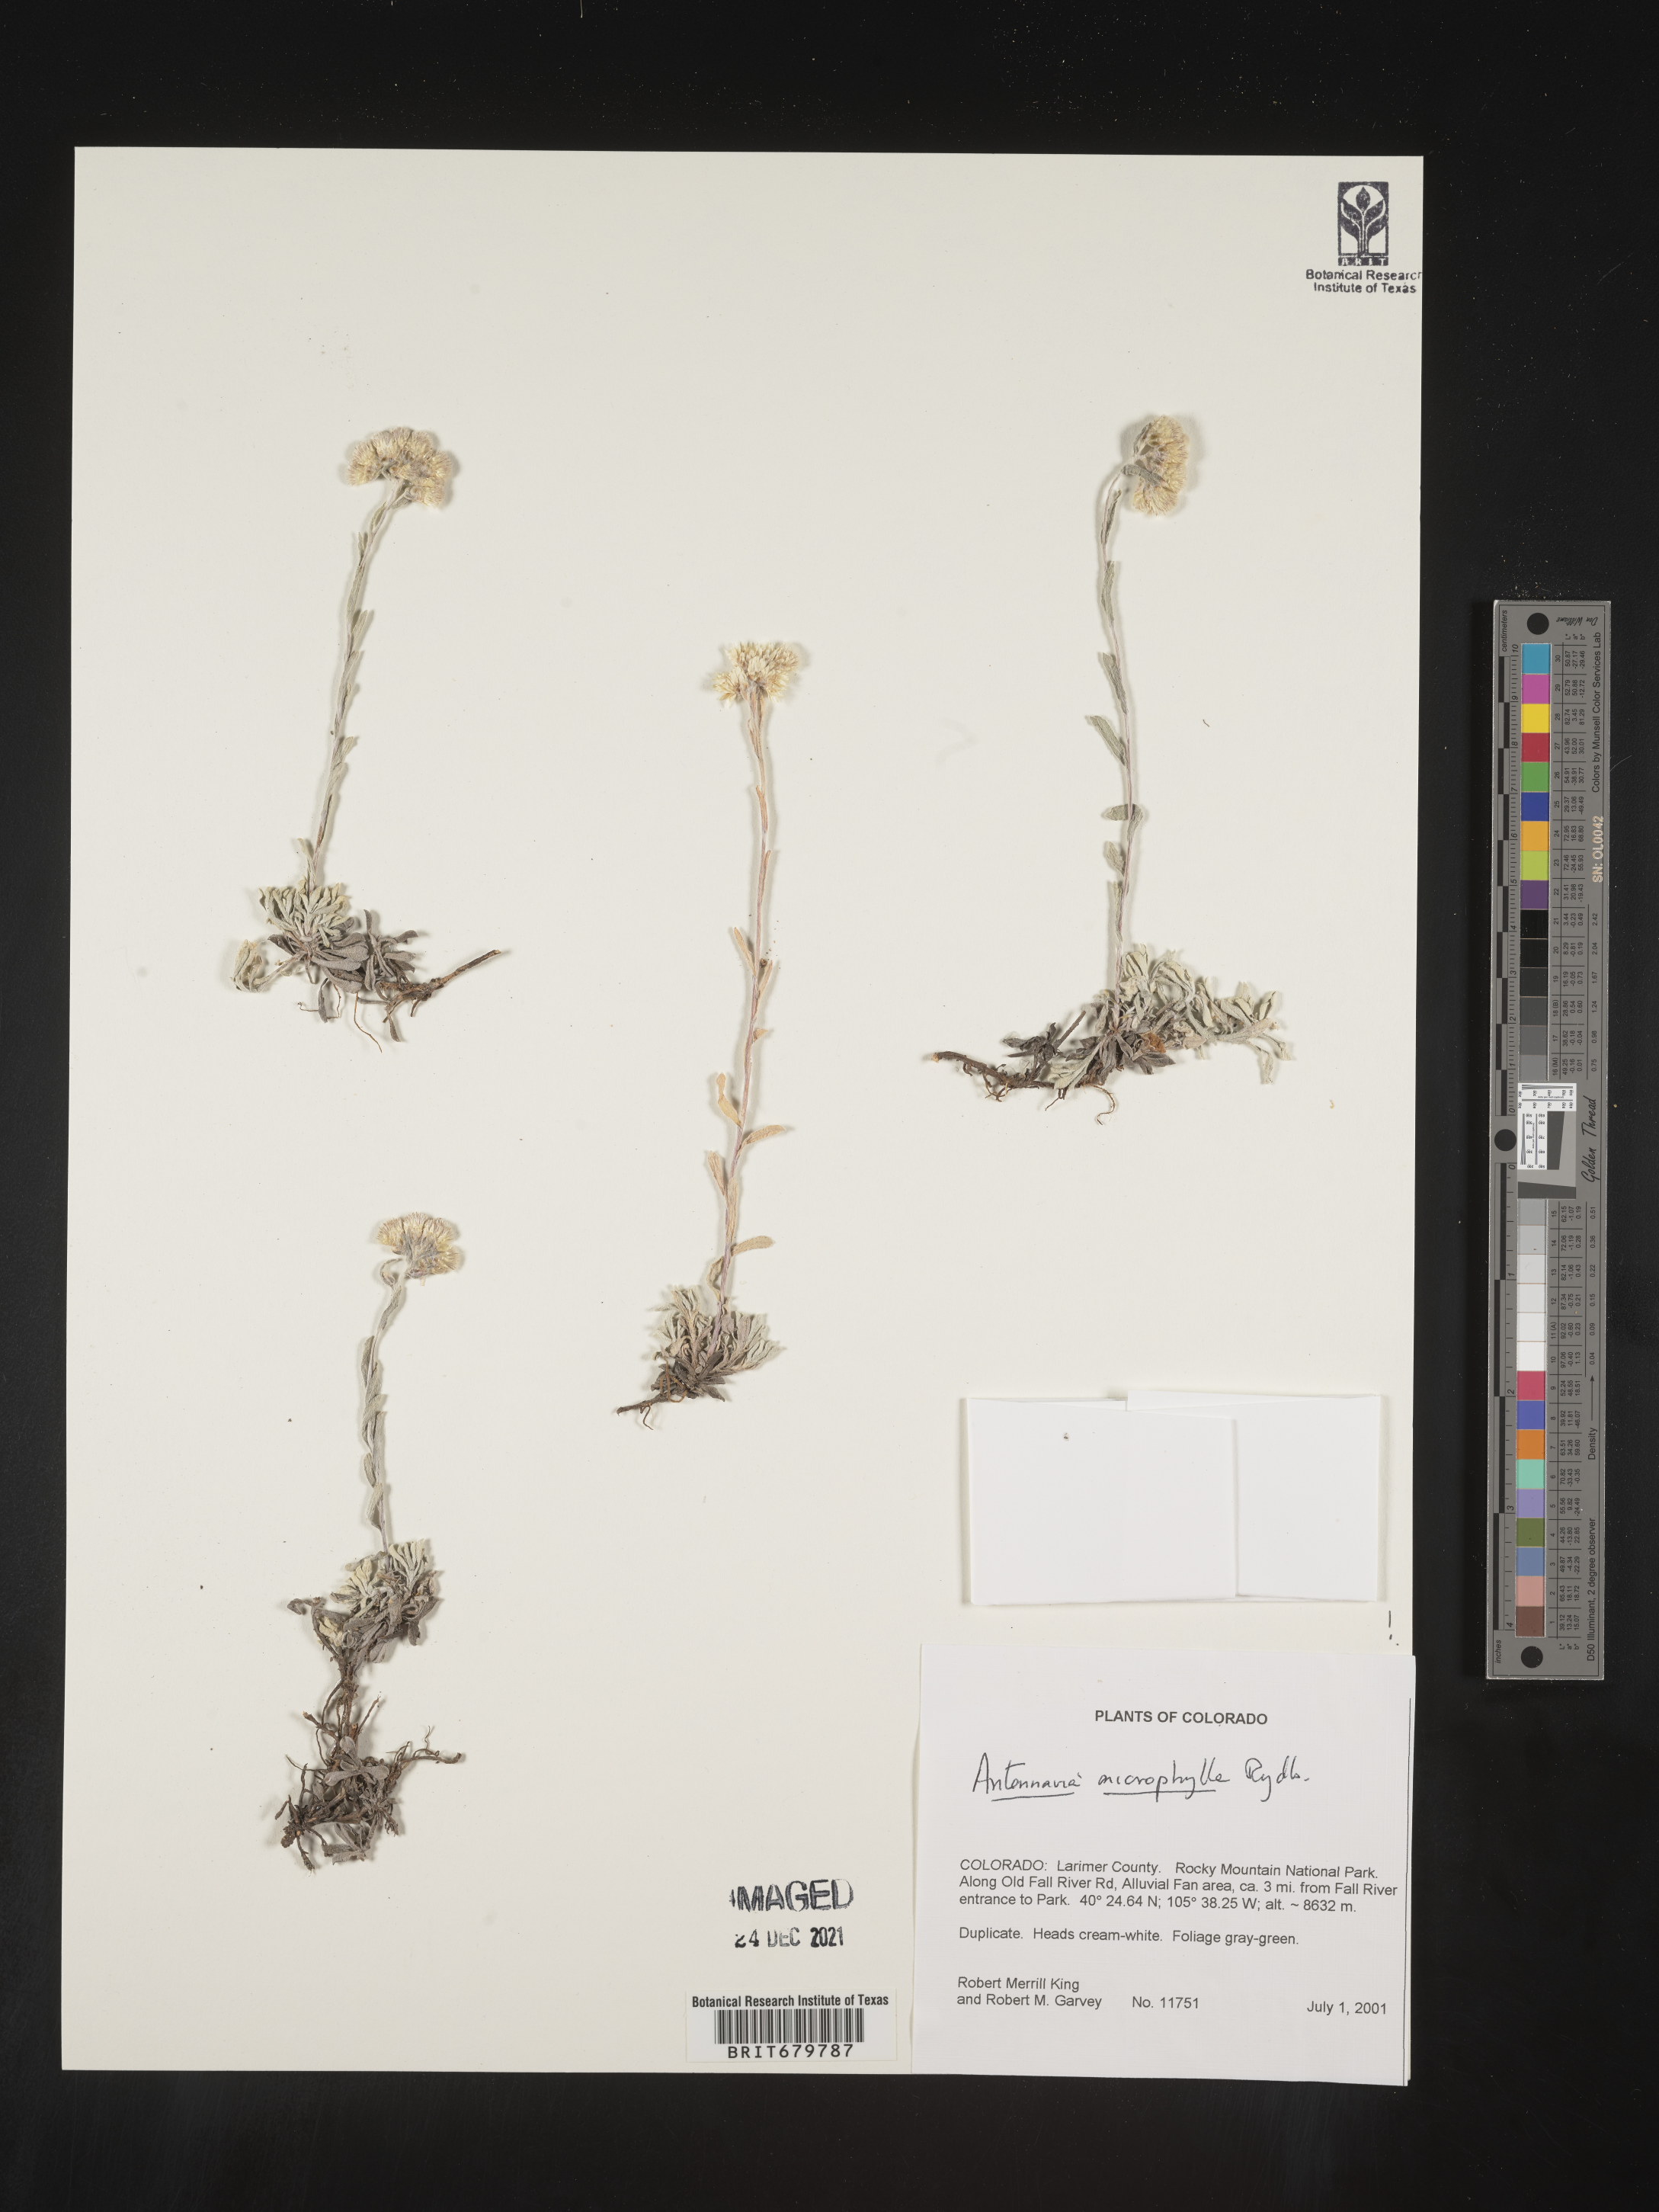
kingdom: Plantae
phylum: Tracheophyta
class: Magnoliopsida
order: Asterales
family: Asteraceae
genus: Antennaria
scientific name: Antennaria microphylla
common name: Littleleaf pussytoes
